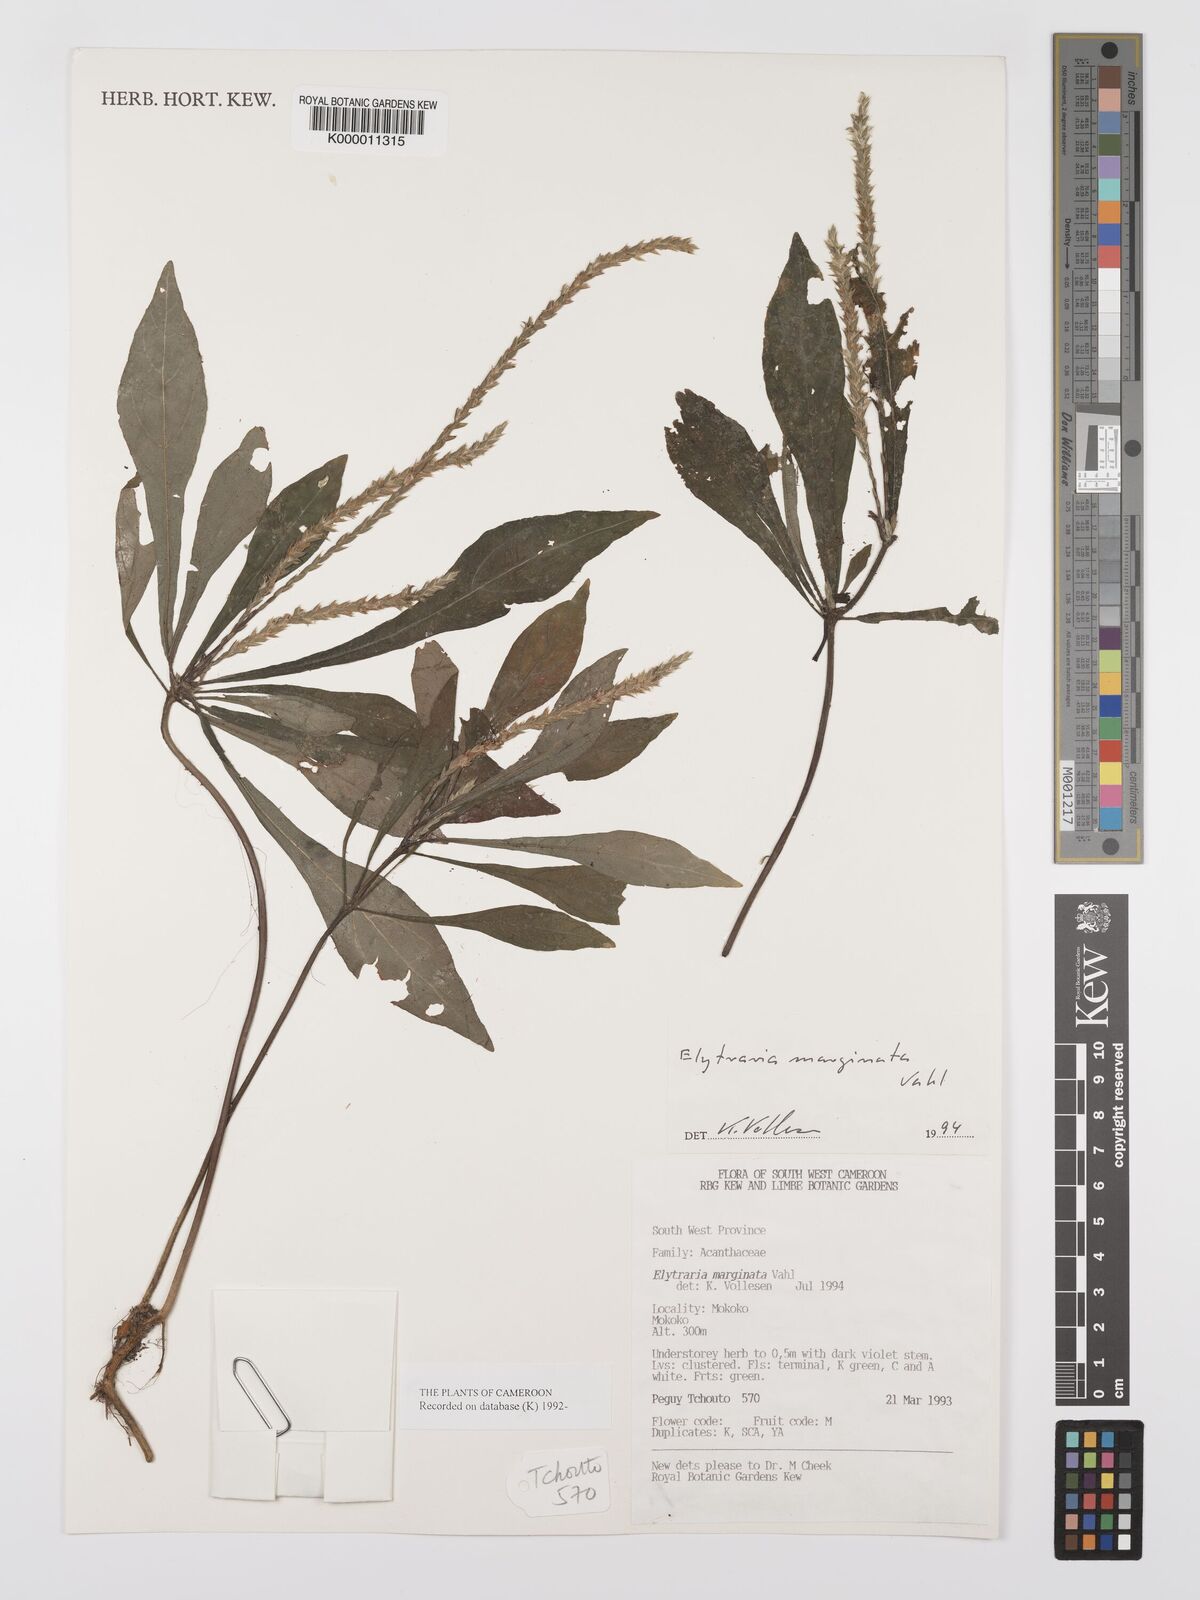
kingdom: Plantae
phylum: Tracheophyta
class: Magnoliopsida
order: Lamiales
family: Acanthaceae
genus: Elytraria
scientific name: Elytraria marginata
